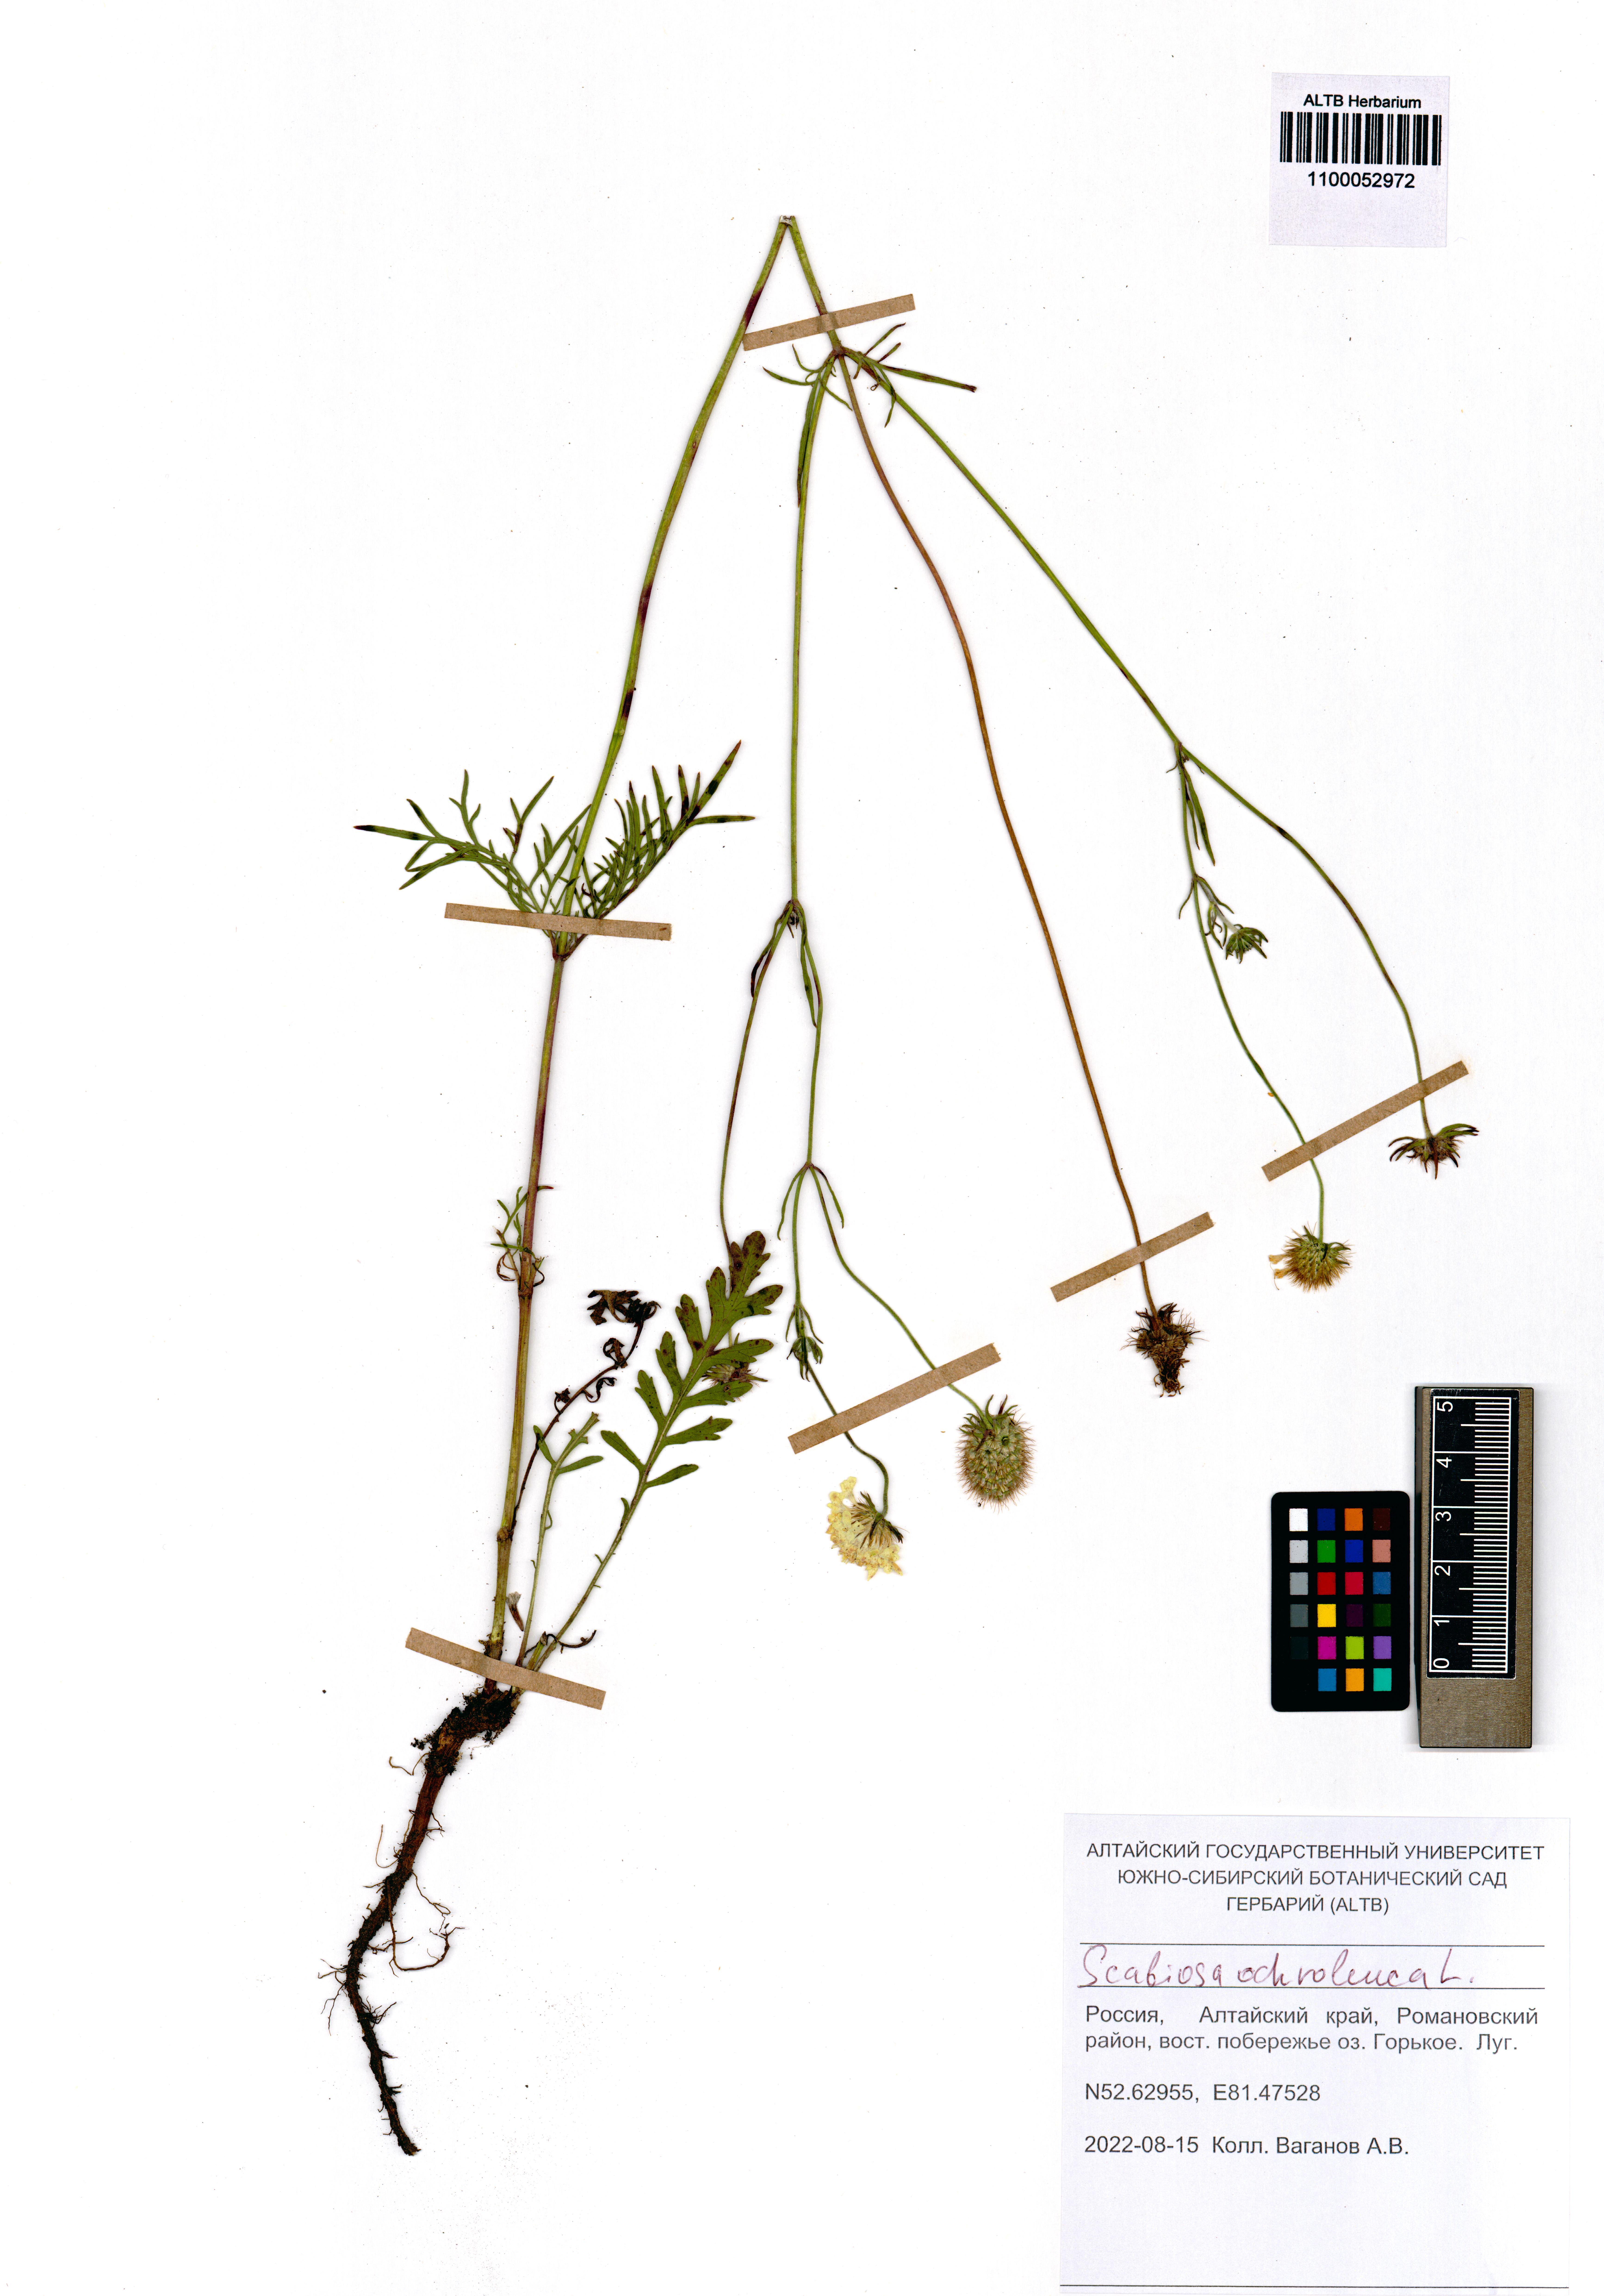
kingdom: Plantae
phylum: Tracheophyta
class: Magnoliopsida
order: Dipsacales
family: Caprifoliaceae
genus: Scabiosa
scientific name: Scabiosa ochroleuca
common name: Cream pincushions
